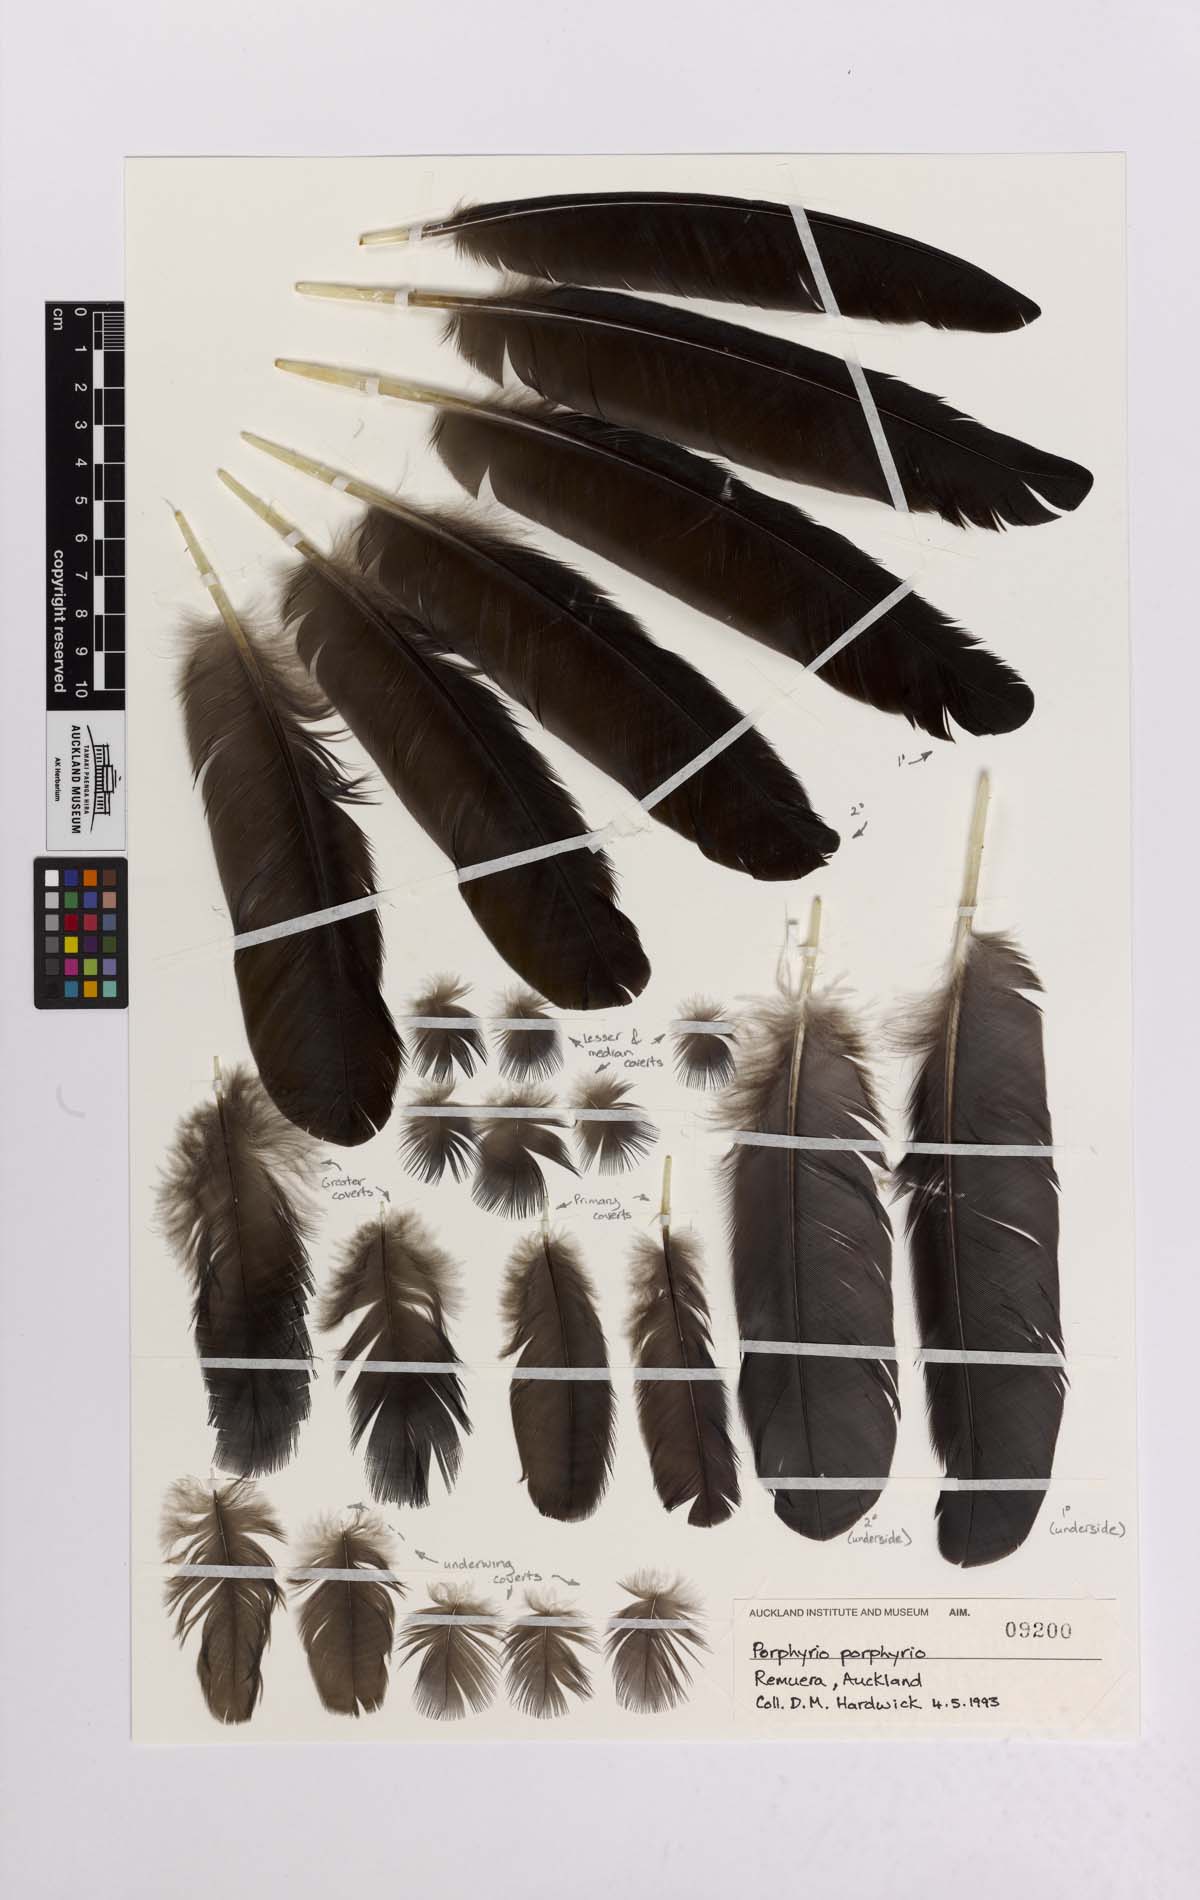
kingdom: Animalia
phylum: Chordata
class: Aves
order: Gruiformes
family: Rallidae
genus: Porphyrio
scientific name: Porphyrio melanotus
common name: Australasian swamphen
